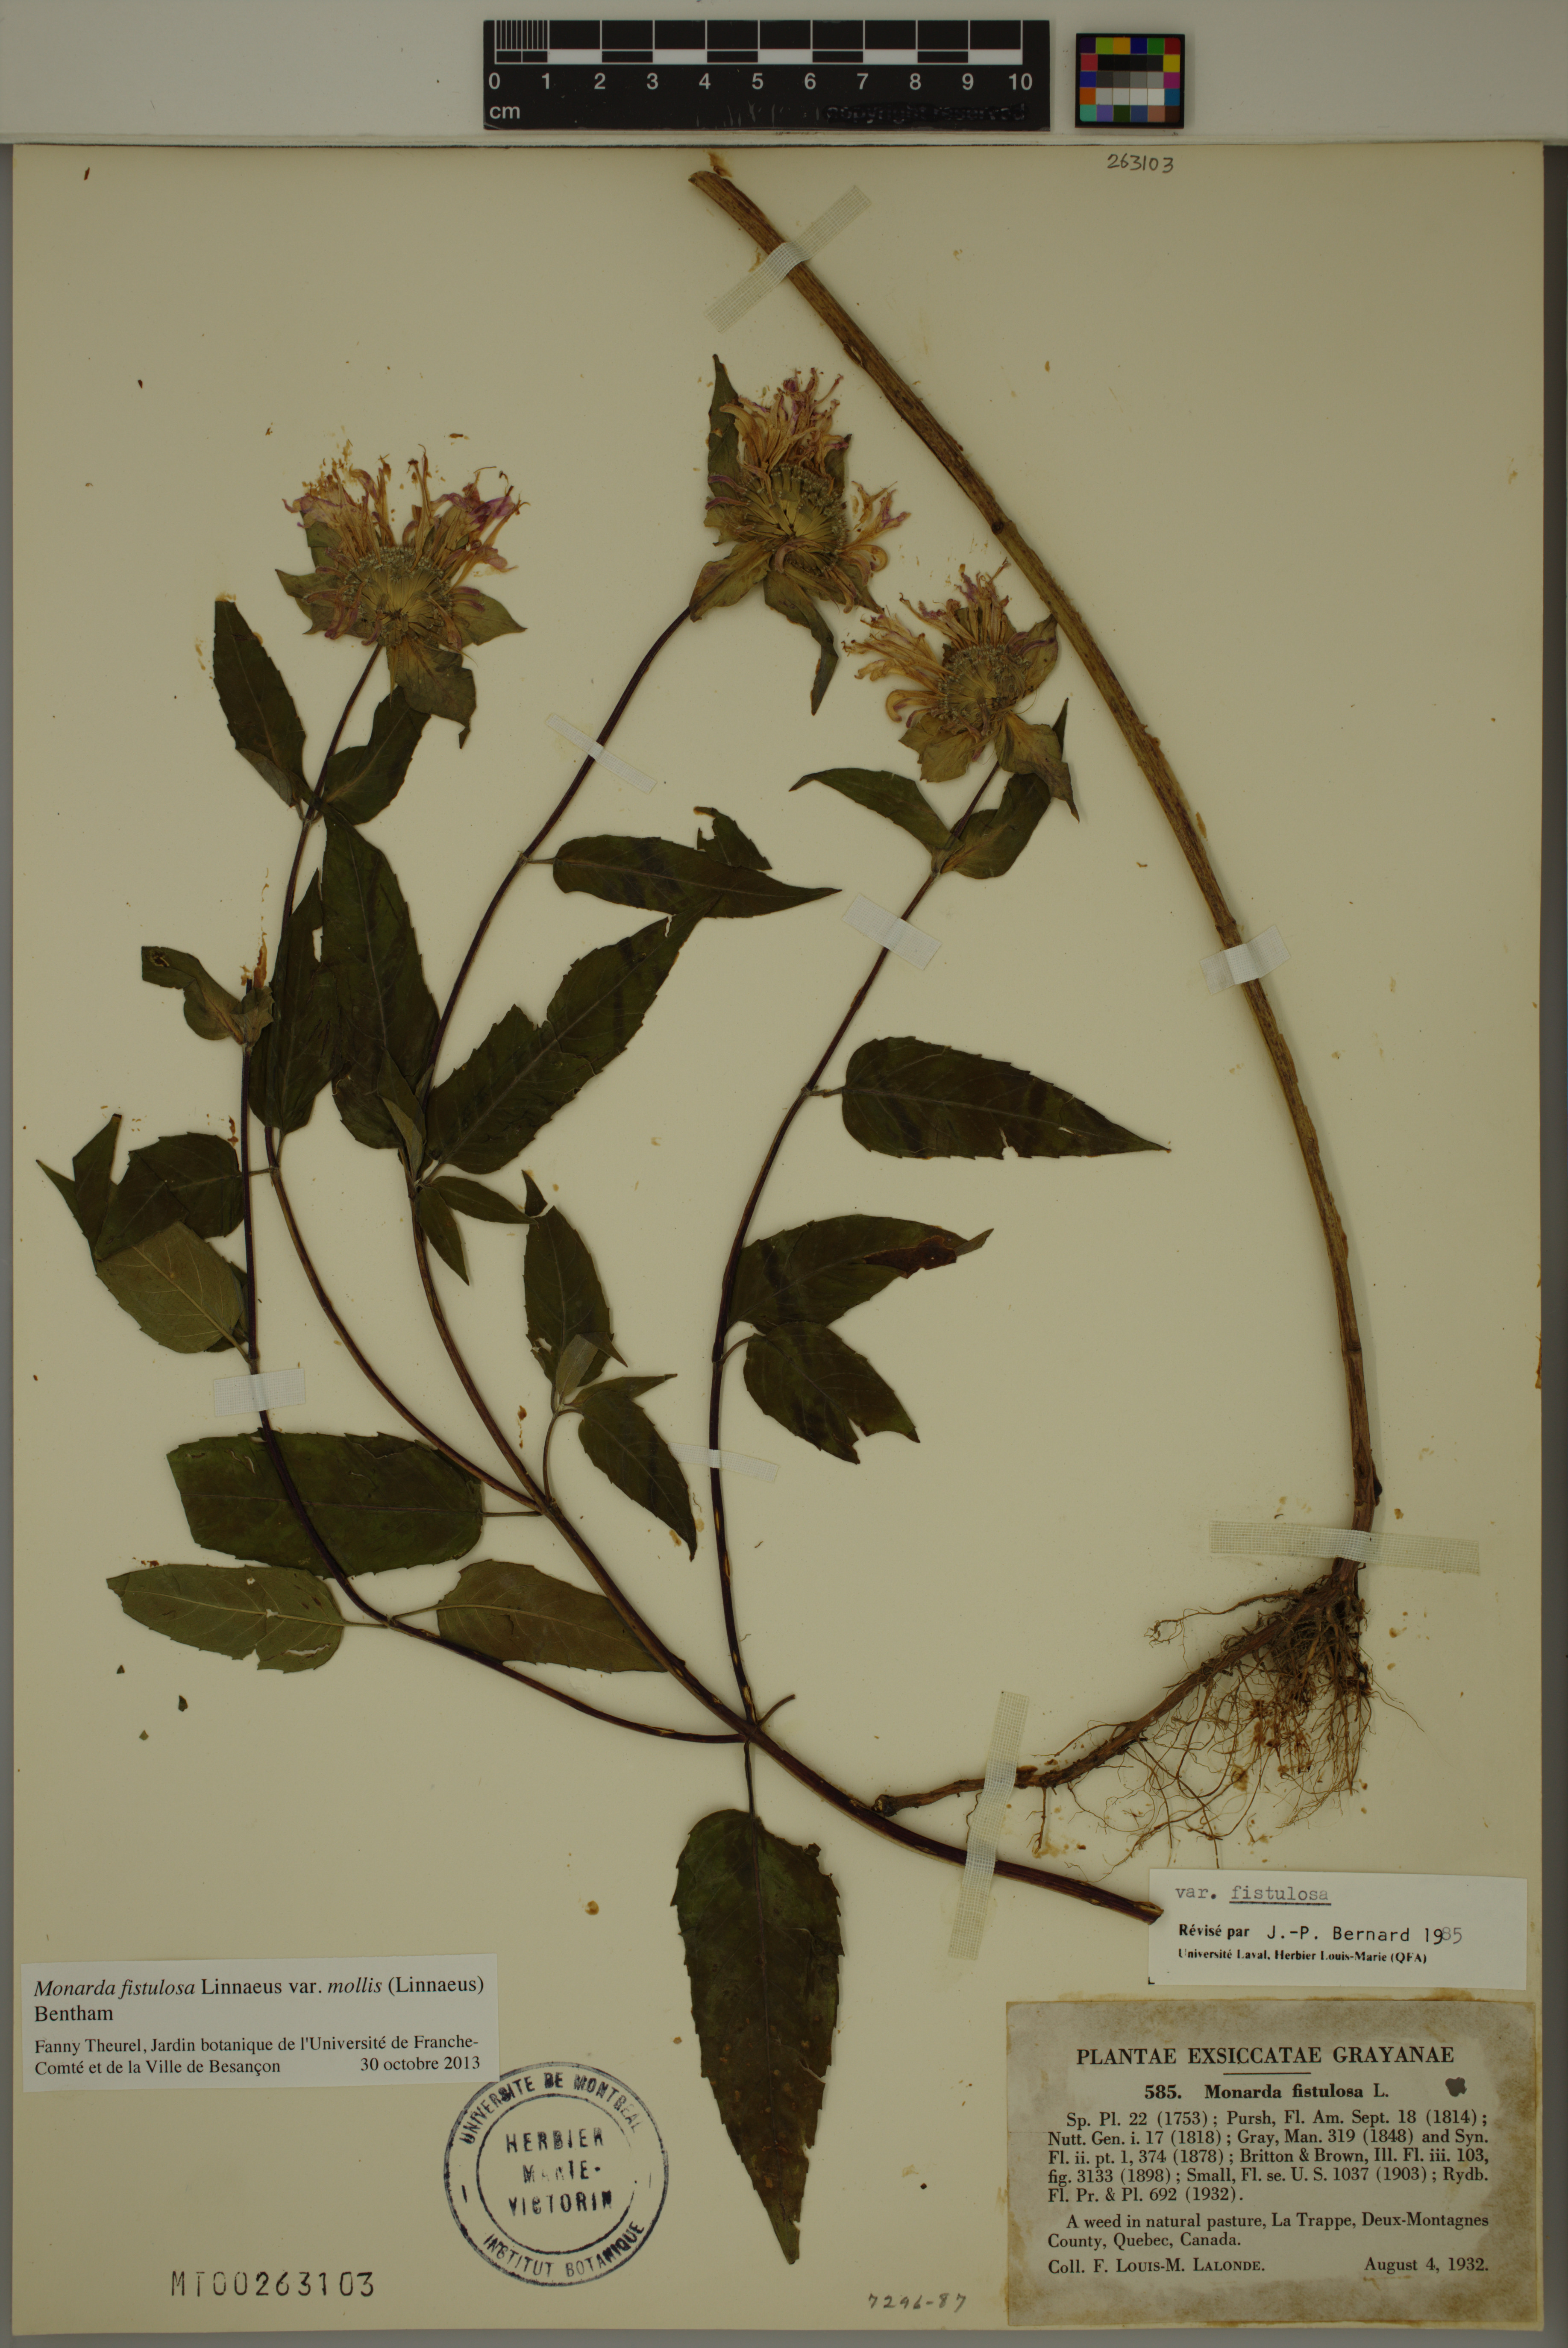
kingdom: Plantae
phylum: Tracheophyta
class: Magnoliopsida
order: Lamiales
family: Lamiaceae
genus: Monarda
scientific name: Monarda fistulosa
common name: Purple beebalm
